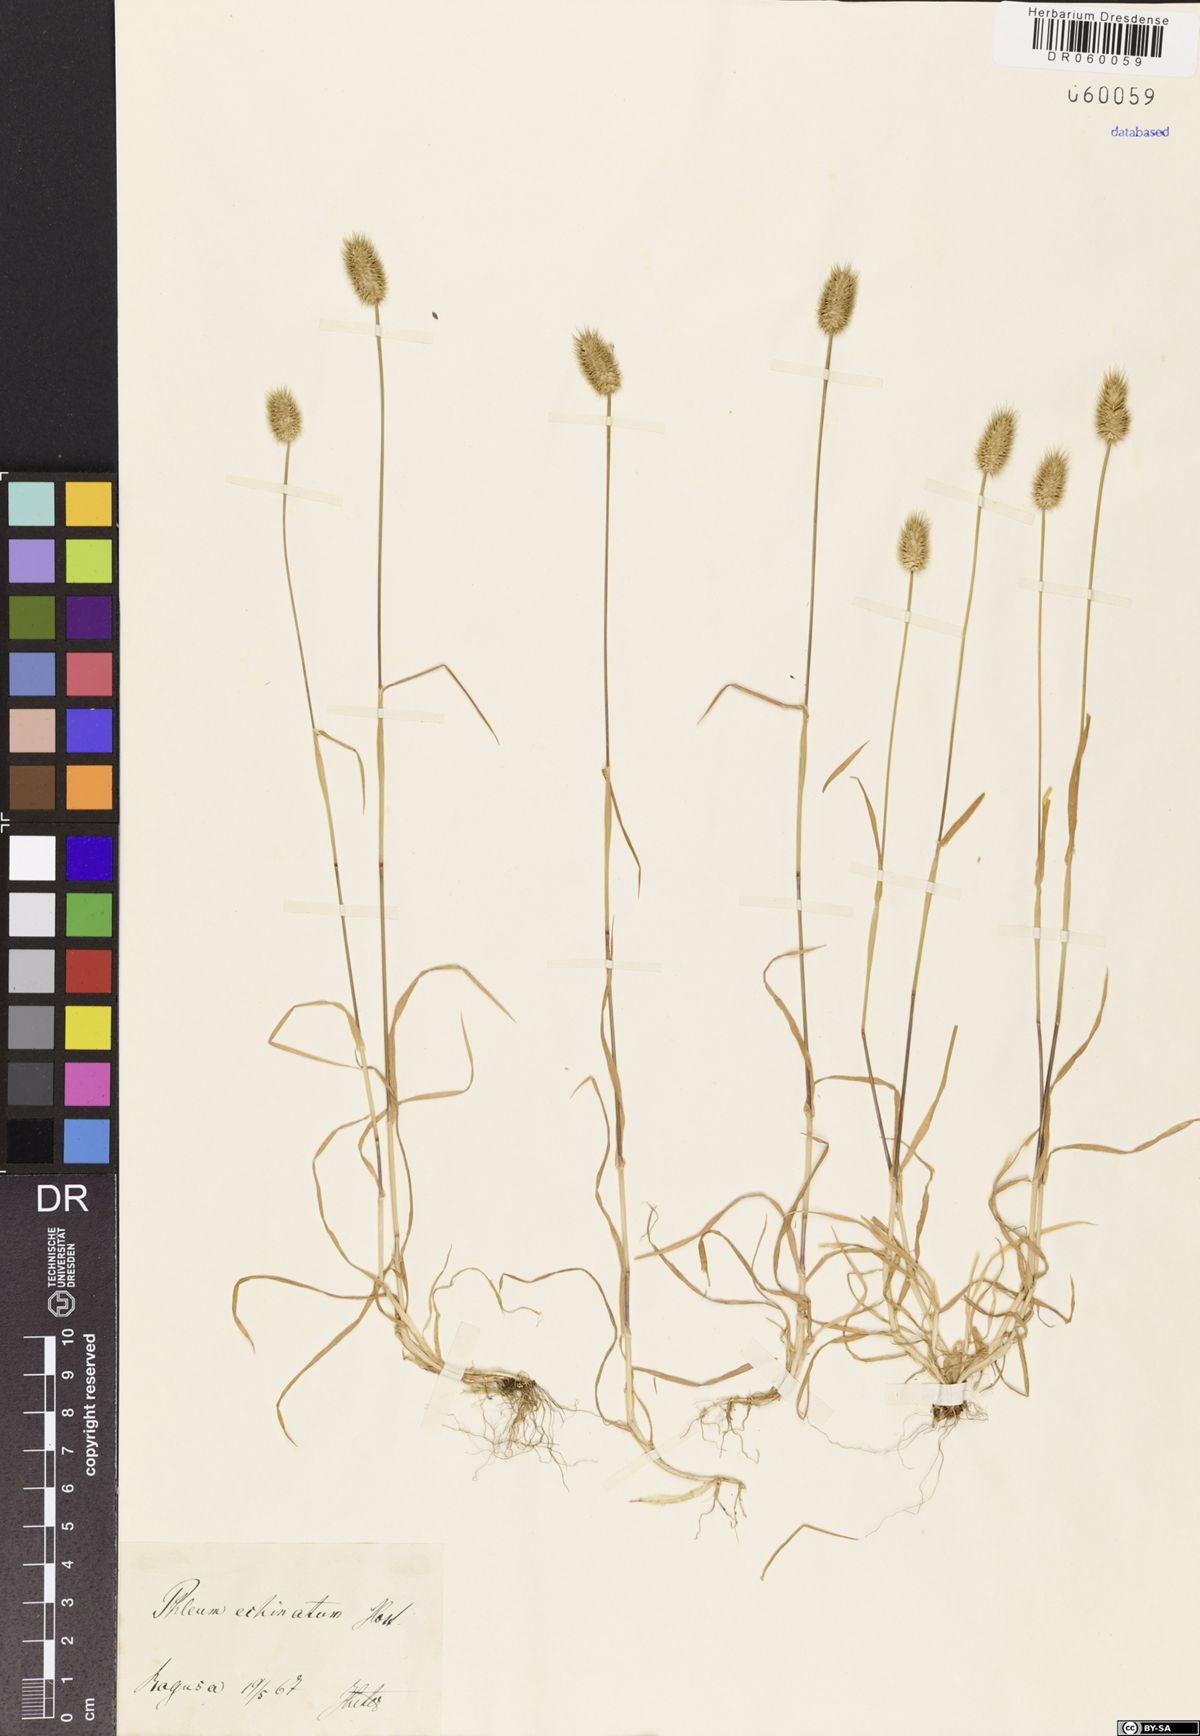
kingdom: Plantae
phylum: Tracheophyta
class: Liliopsida
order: Poales
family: Poaceae
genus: Phleum
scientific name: Phleum echinatum
